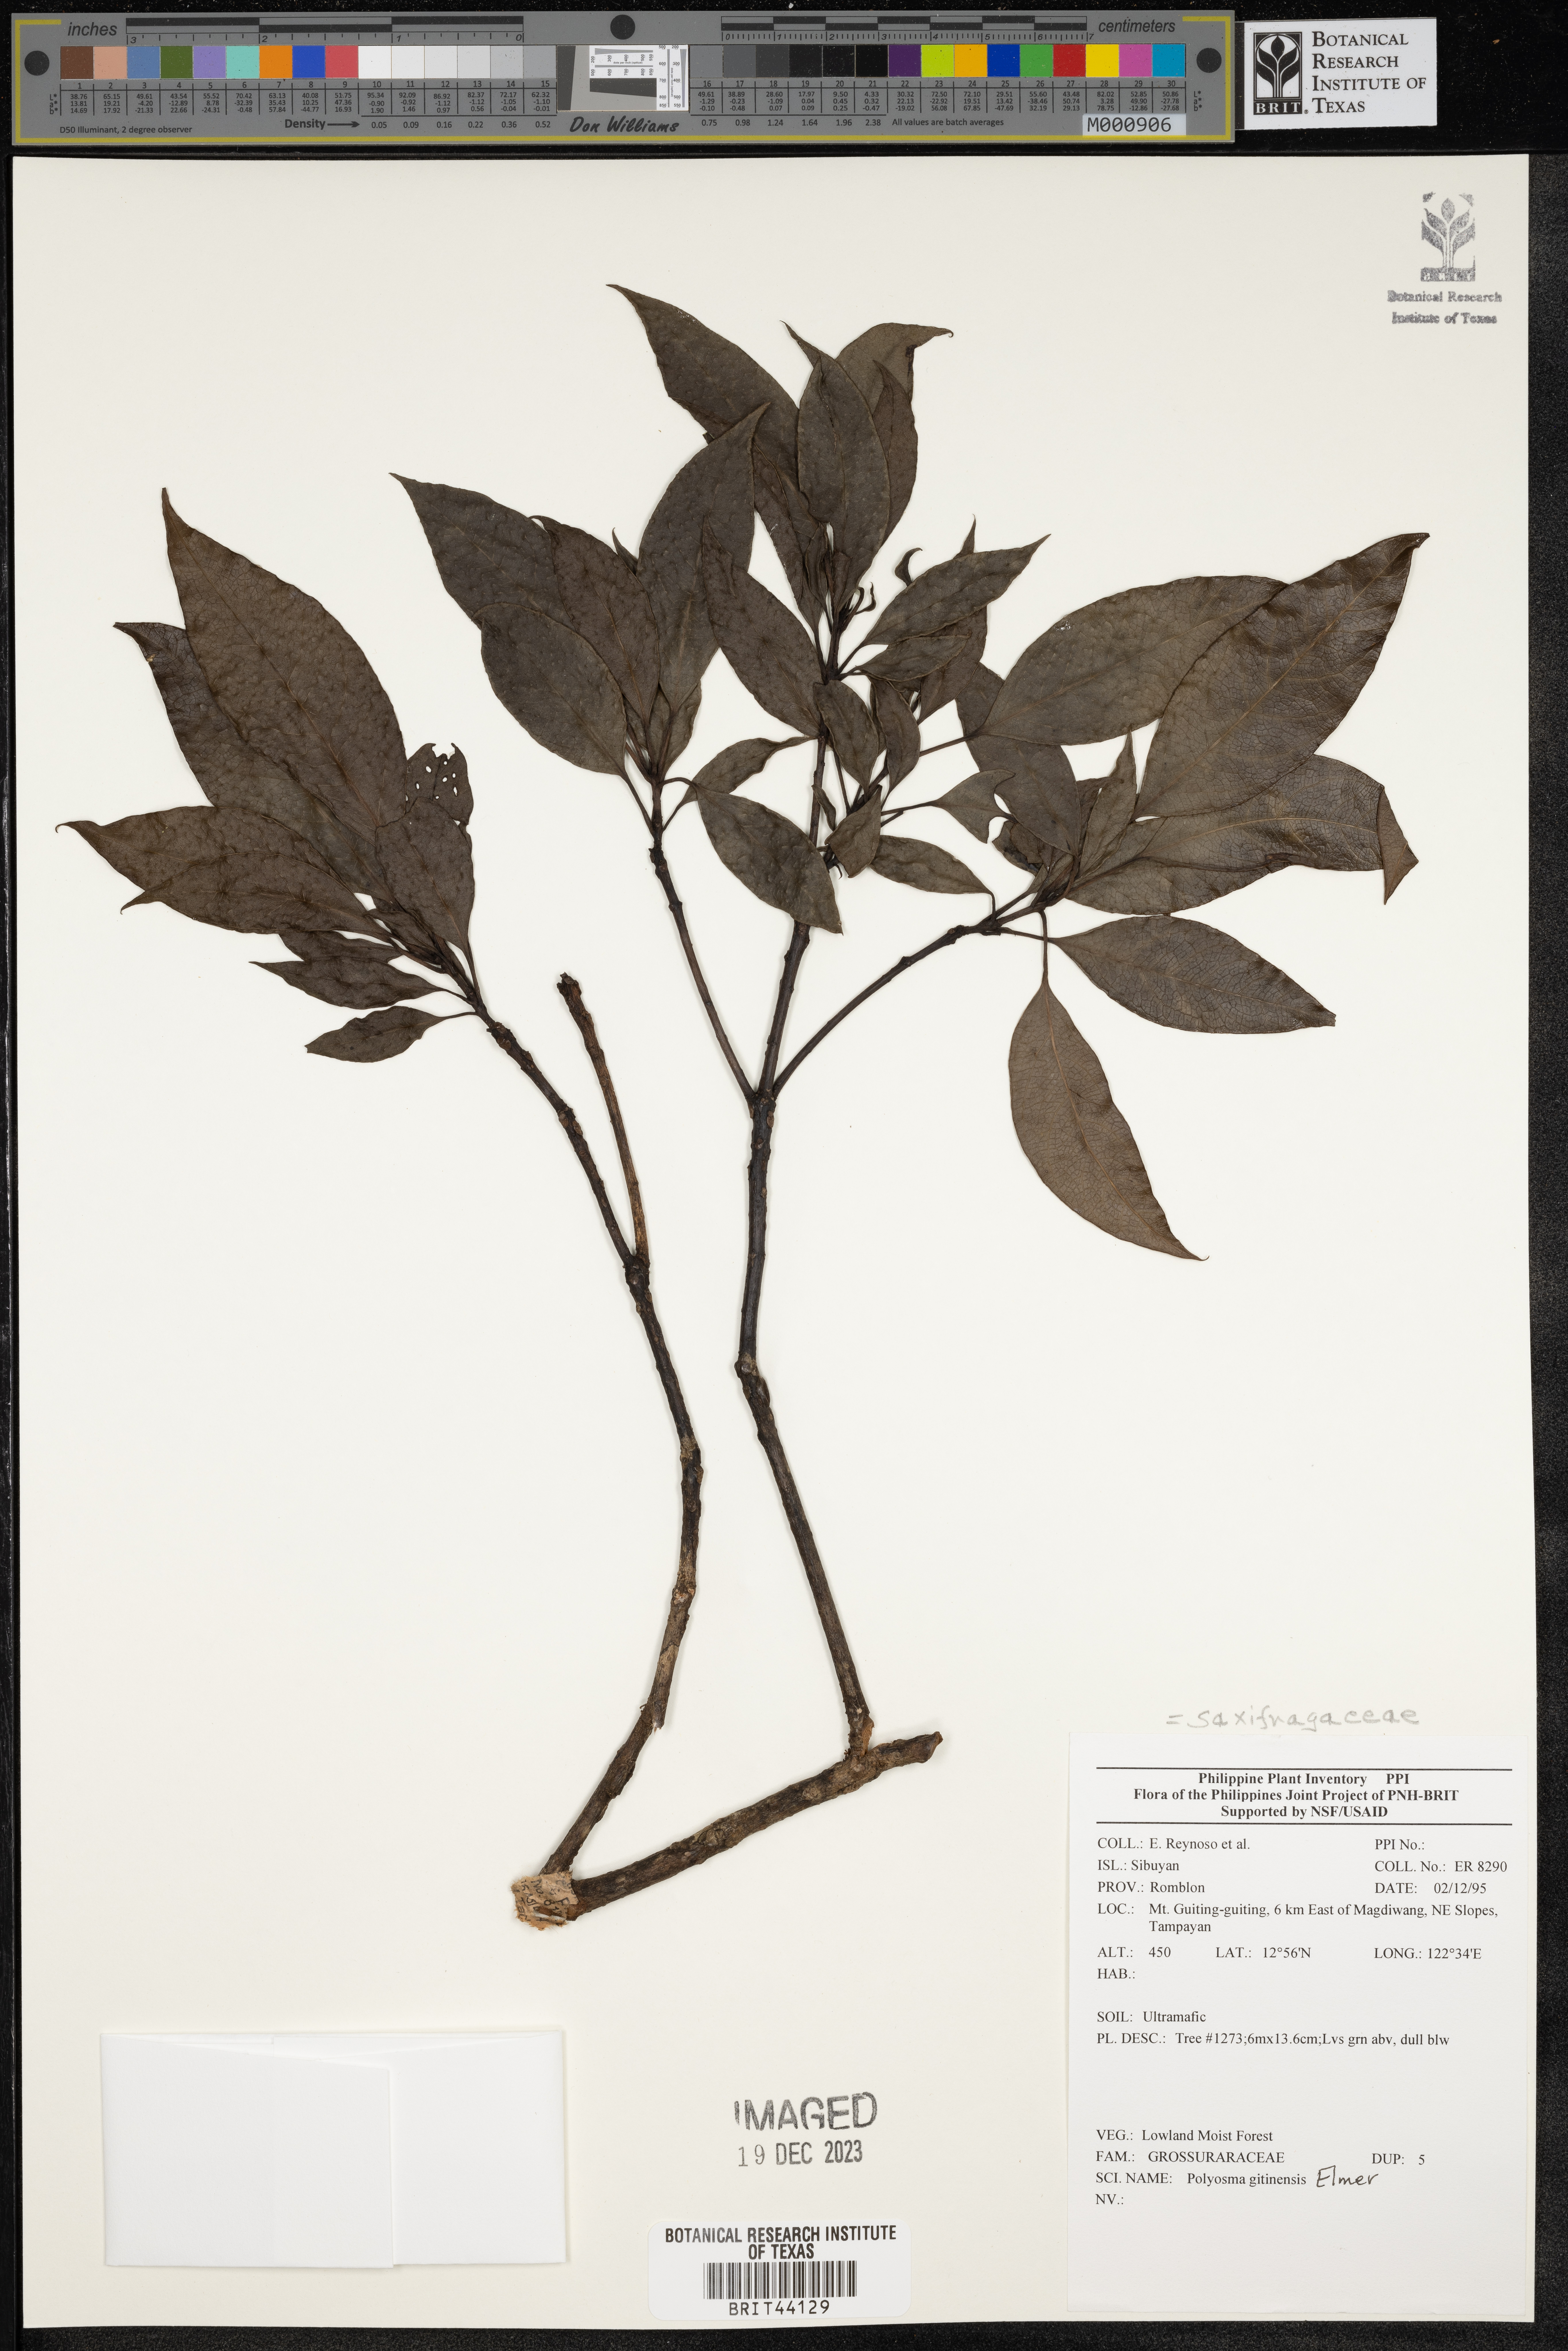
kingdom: Plantae
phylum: Tracheophyta
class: Magnoliopsida
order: Escalloniales
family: Escalloniaceae
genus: Polyosma
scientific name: Polyosma
